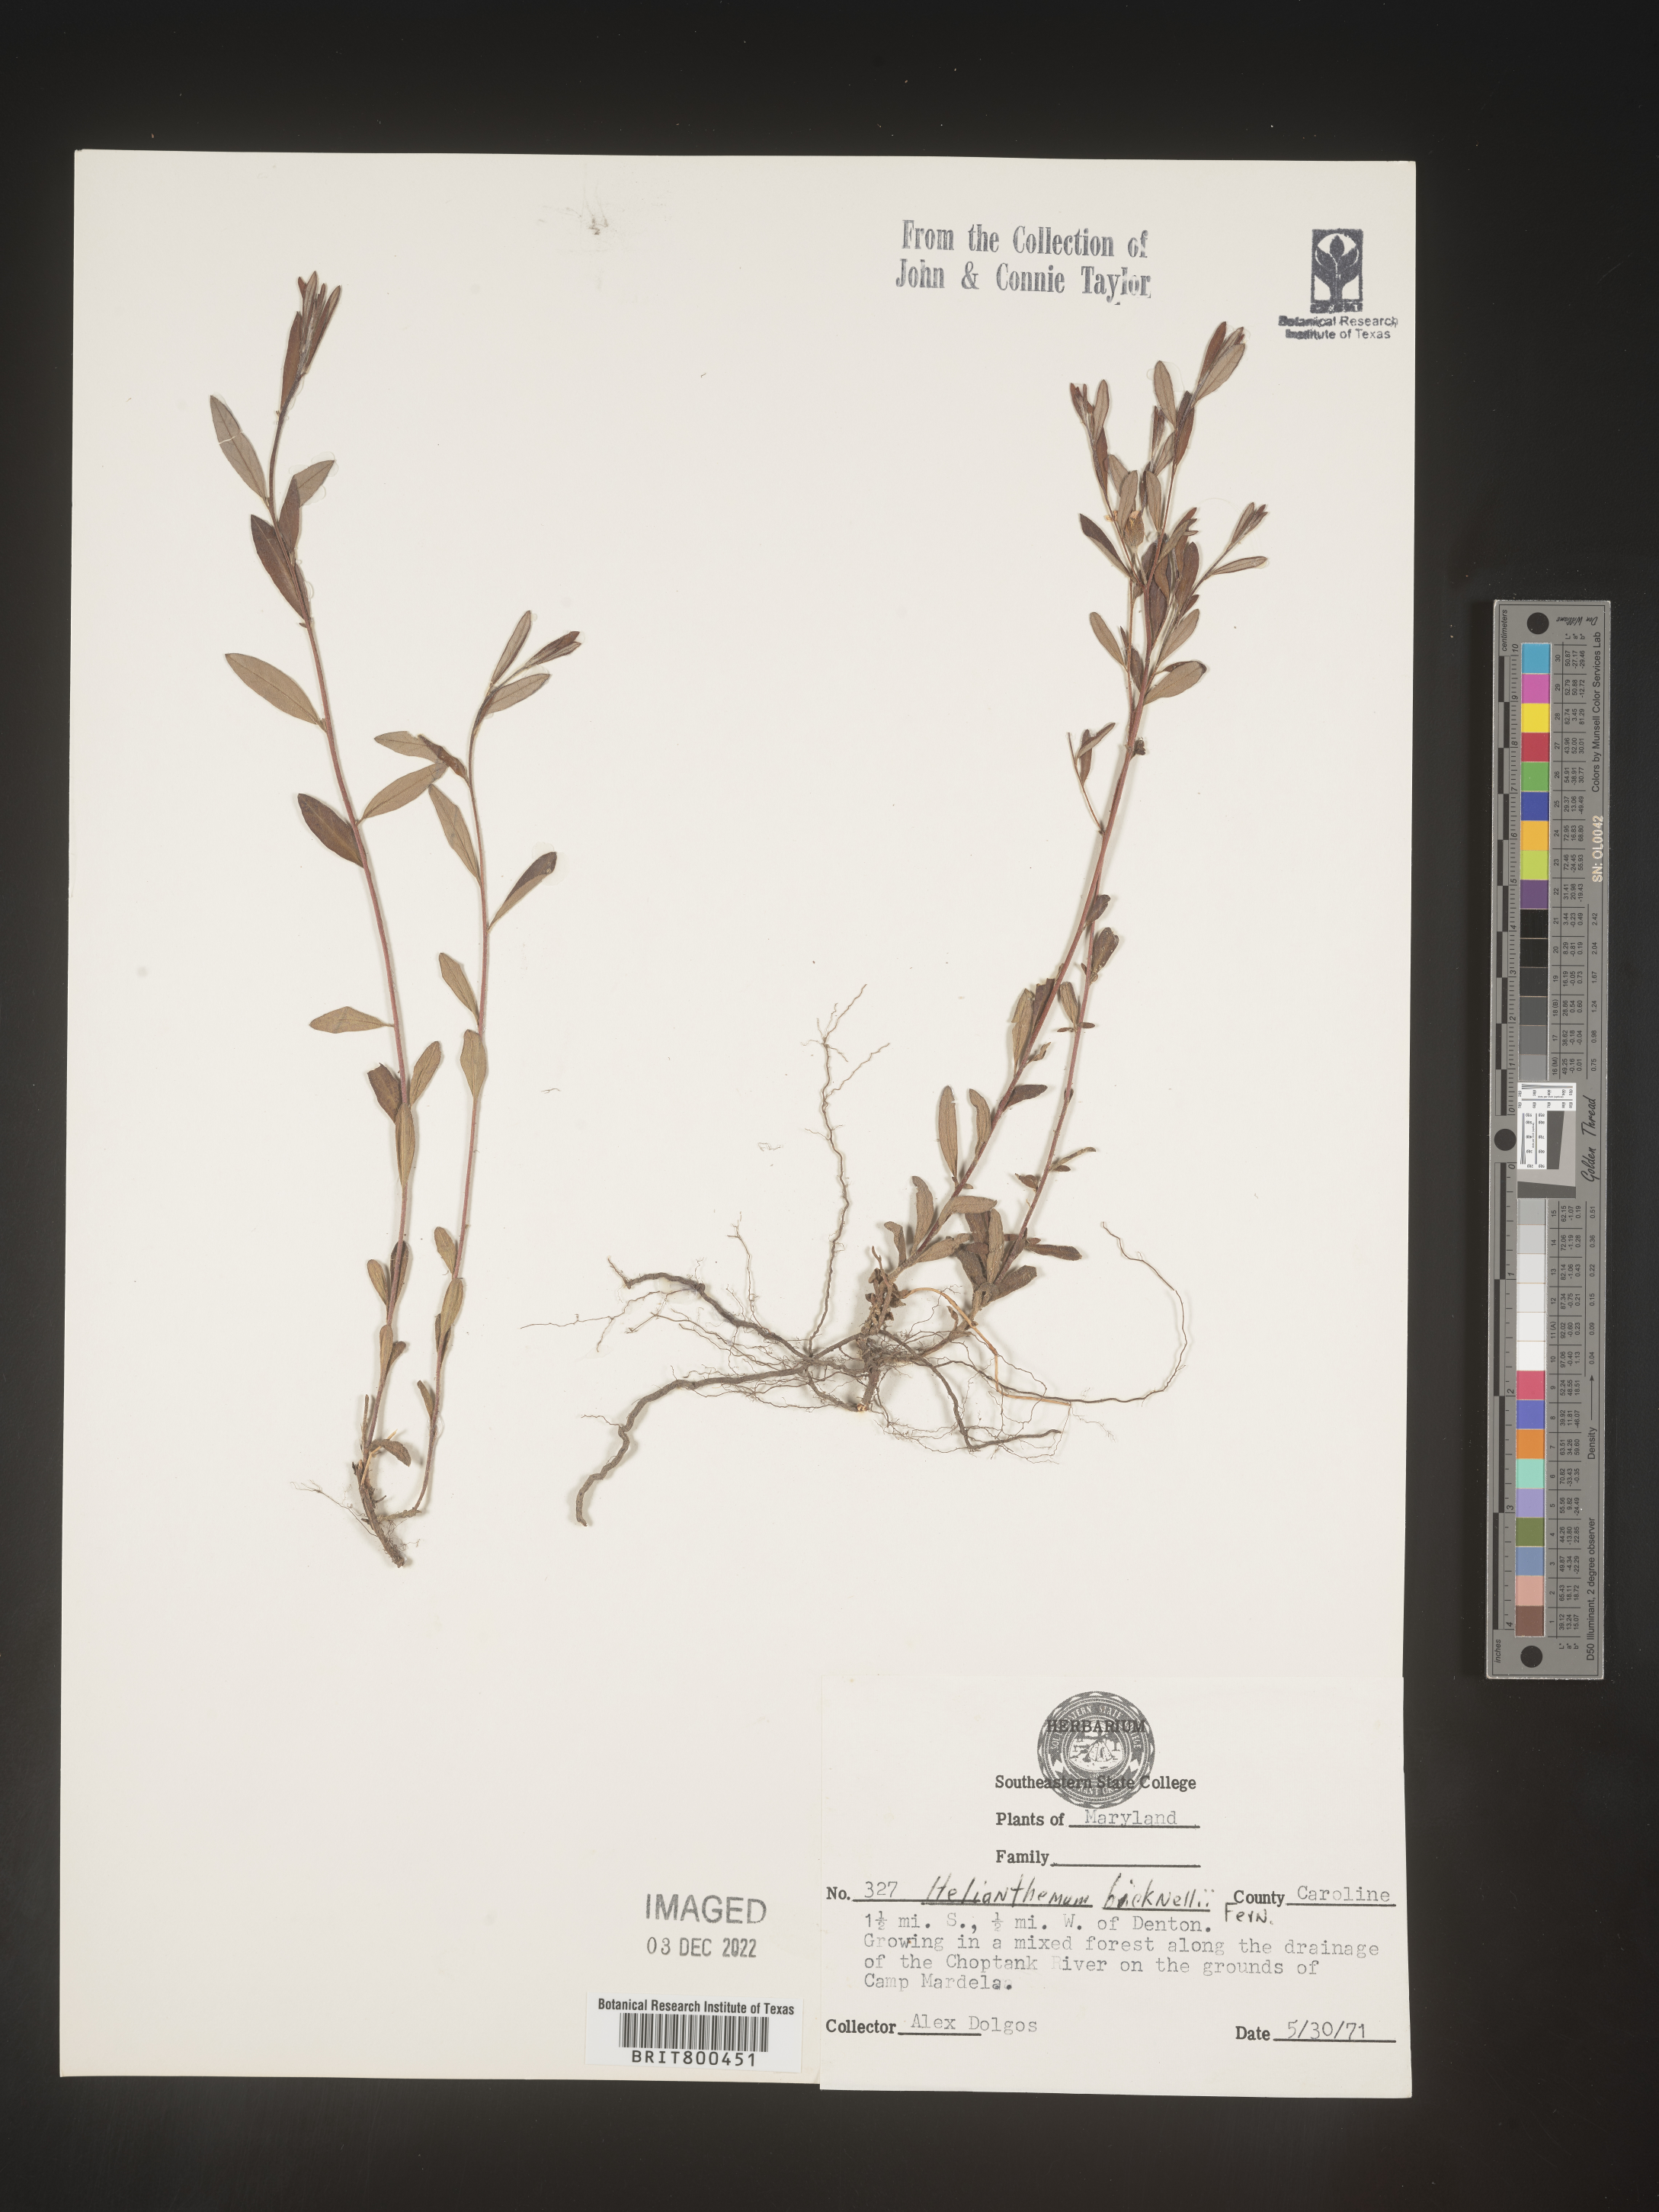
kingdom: Plantae
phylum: Tracheophyta
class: Magnoliopsida
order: Malvales
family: Cistaceae
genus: Helianthemum
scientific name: Helianthemum
